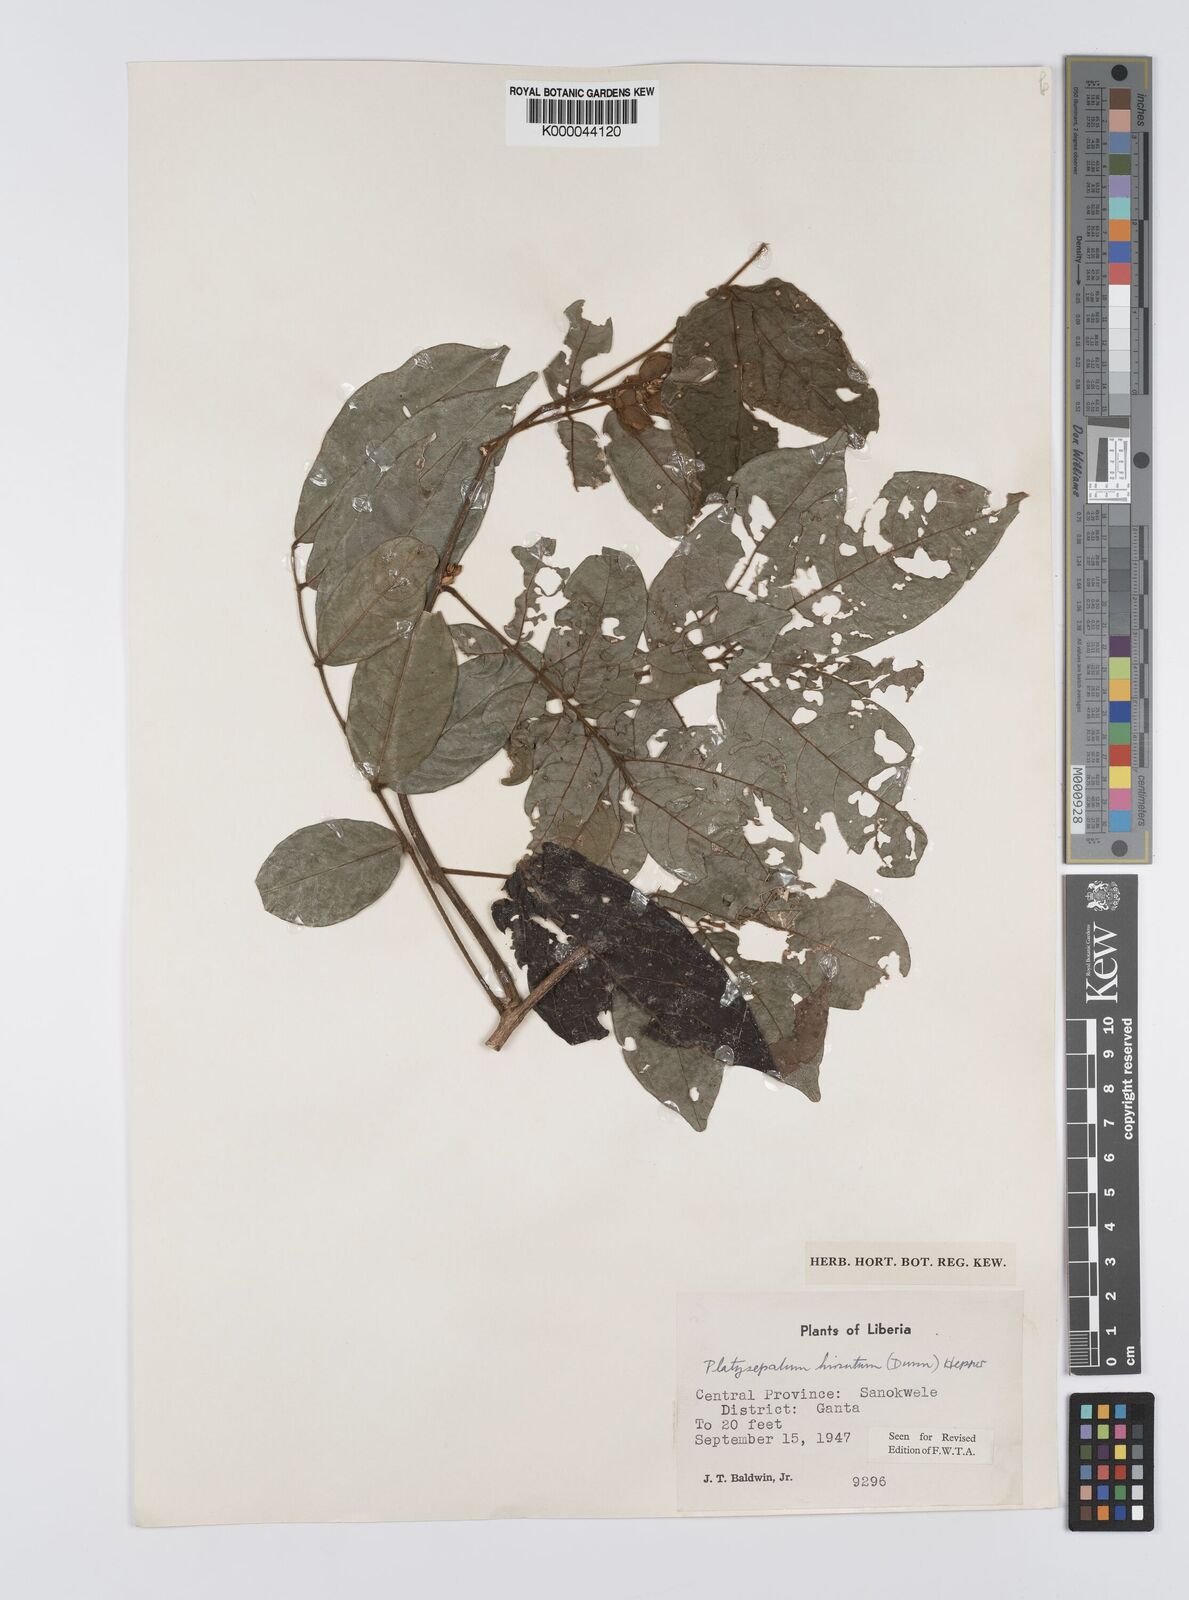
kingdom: Plantae
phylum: Tracheophyta
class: Magnoliopsida
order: Fabales
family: Fabaceae
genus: Platysepalum
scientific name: Platysepalum hirsutum
